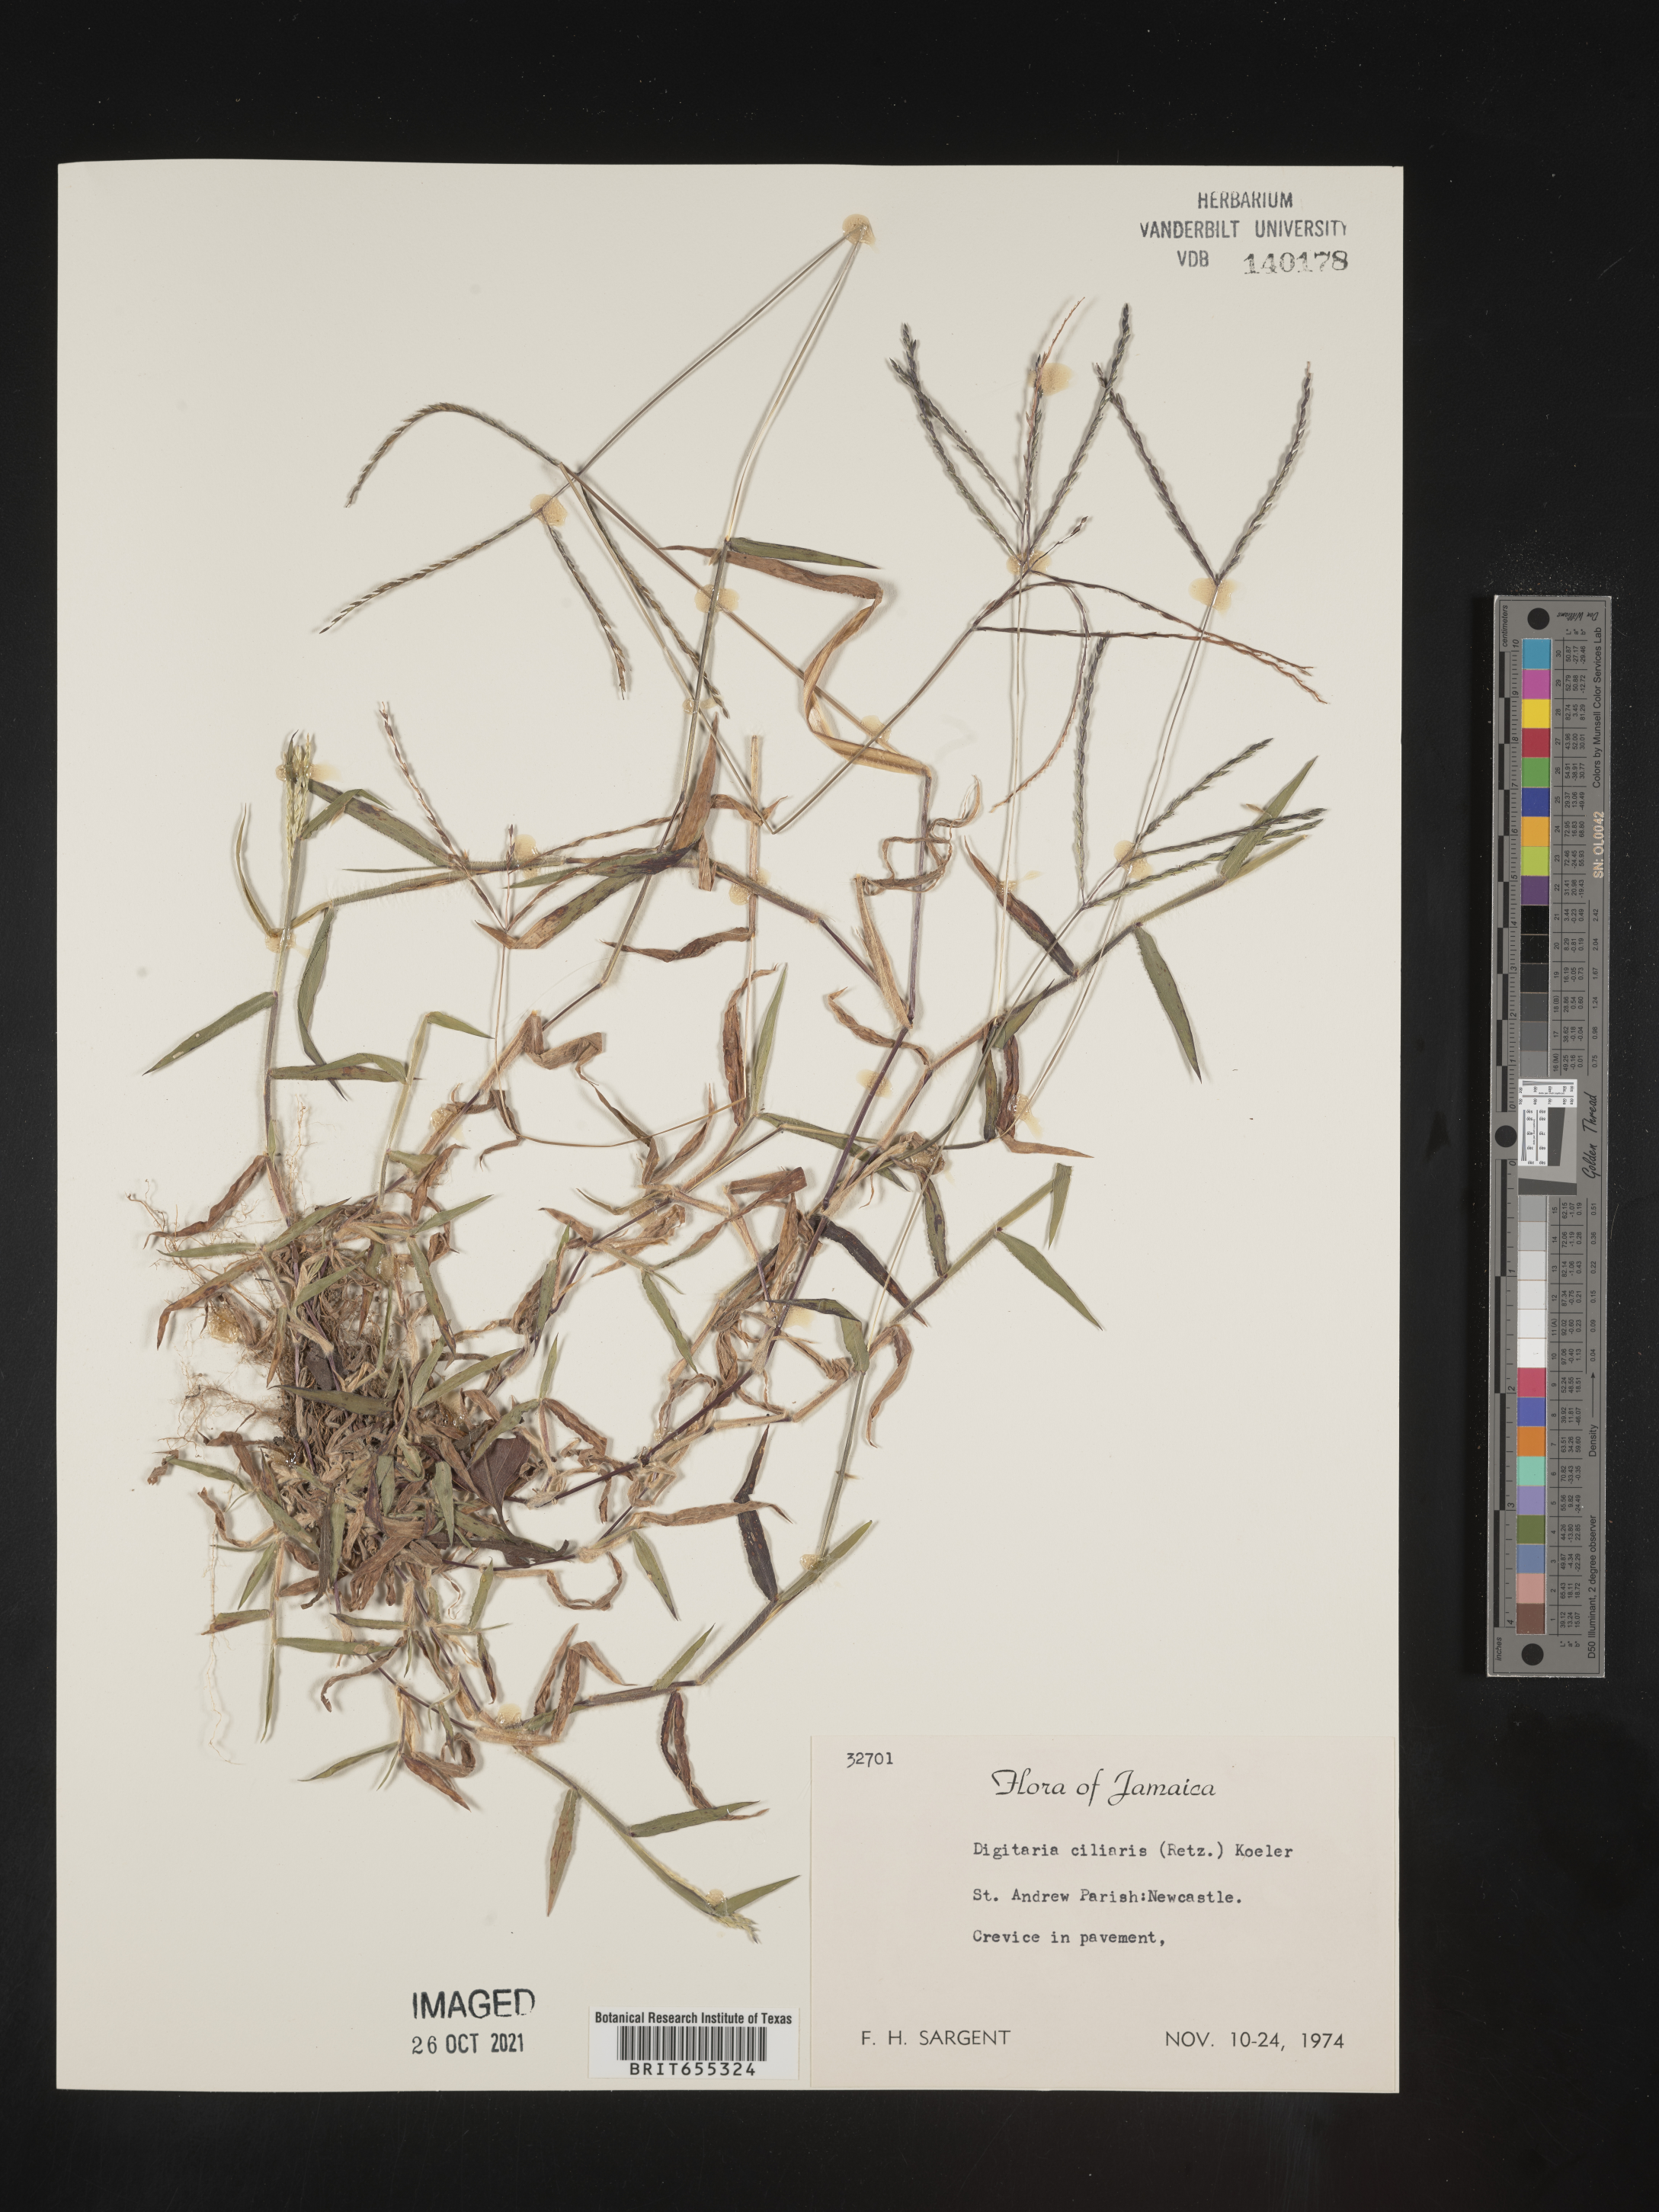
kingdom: Plantae
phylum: Tracheophyta
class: Liliopsida
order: Poales
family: Poaceae
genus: Digitaria
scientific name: Digitaria
